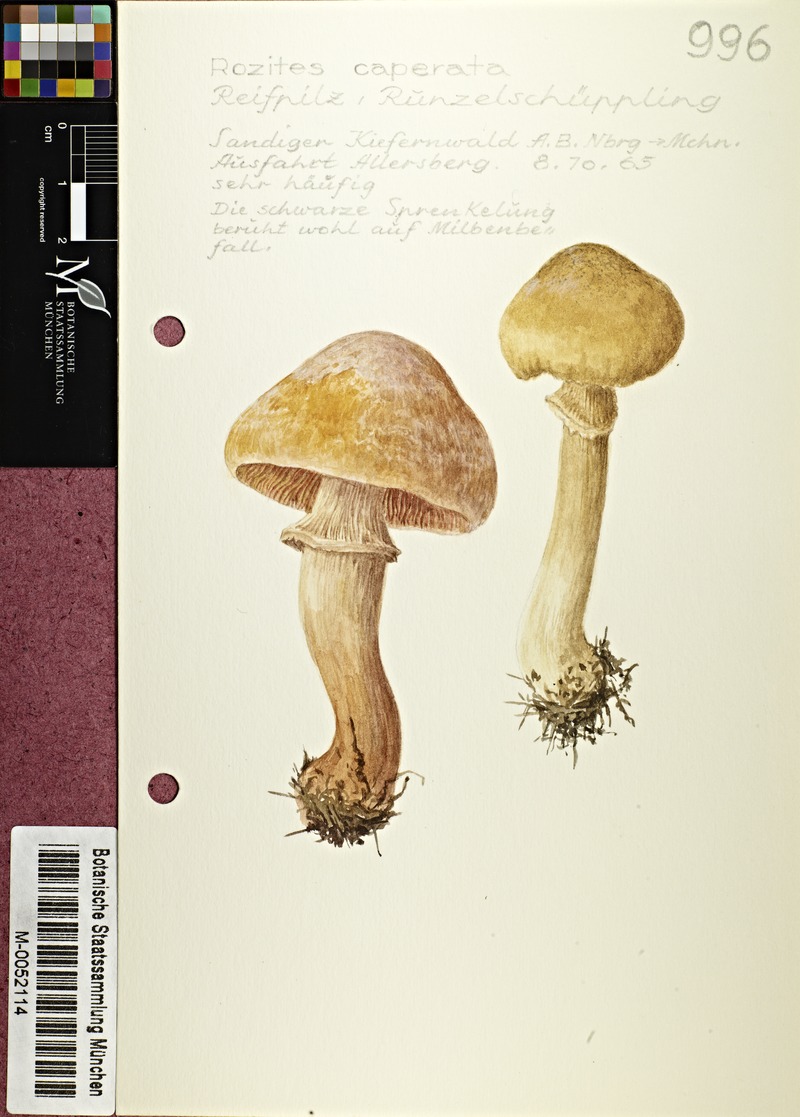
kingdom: Fungi
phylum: Basidiomycota
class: Agaricomycetes
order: Agaricales
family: Cortinariaceae
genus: Cortinarius
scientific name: Cortinarius caperatus
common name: The gypsy
